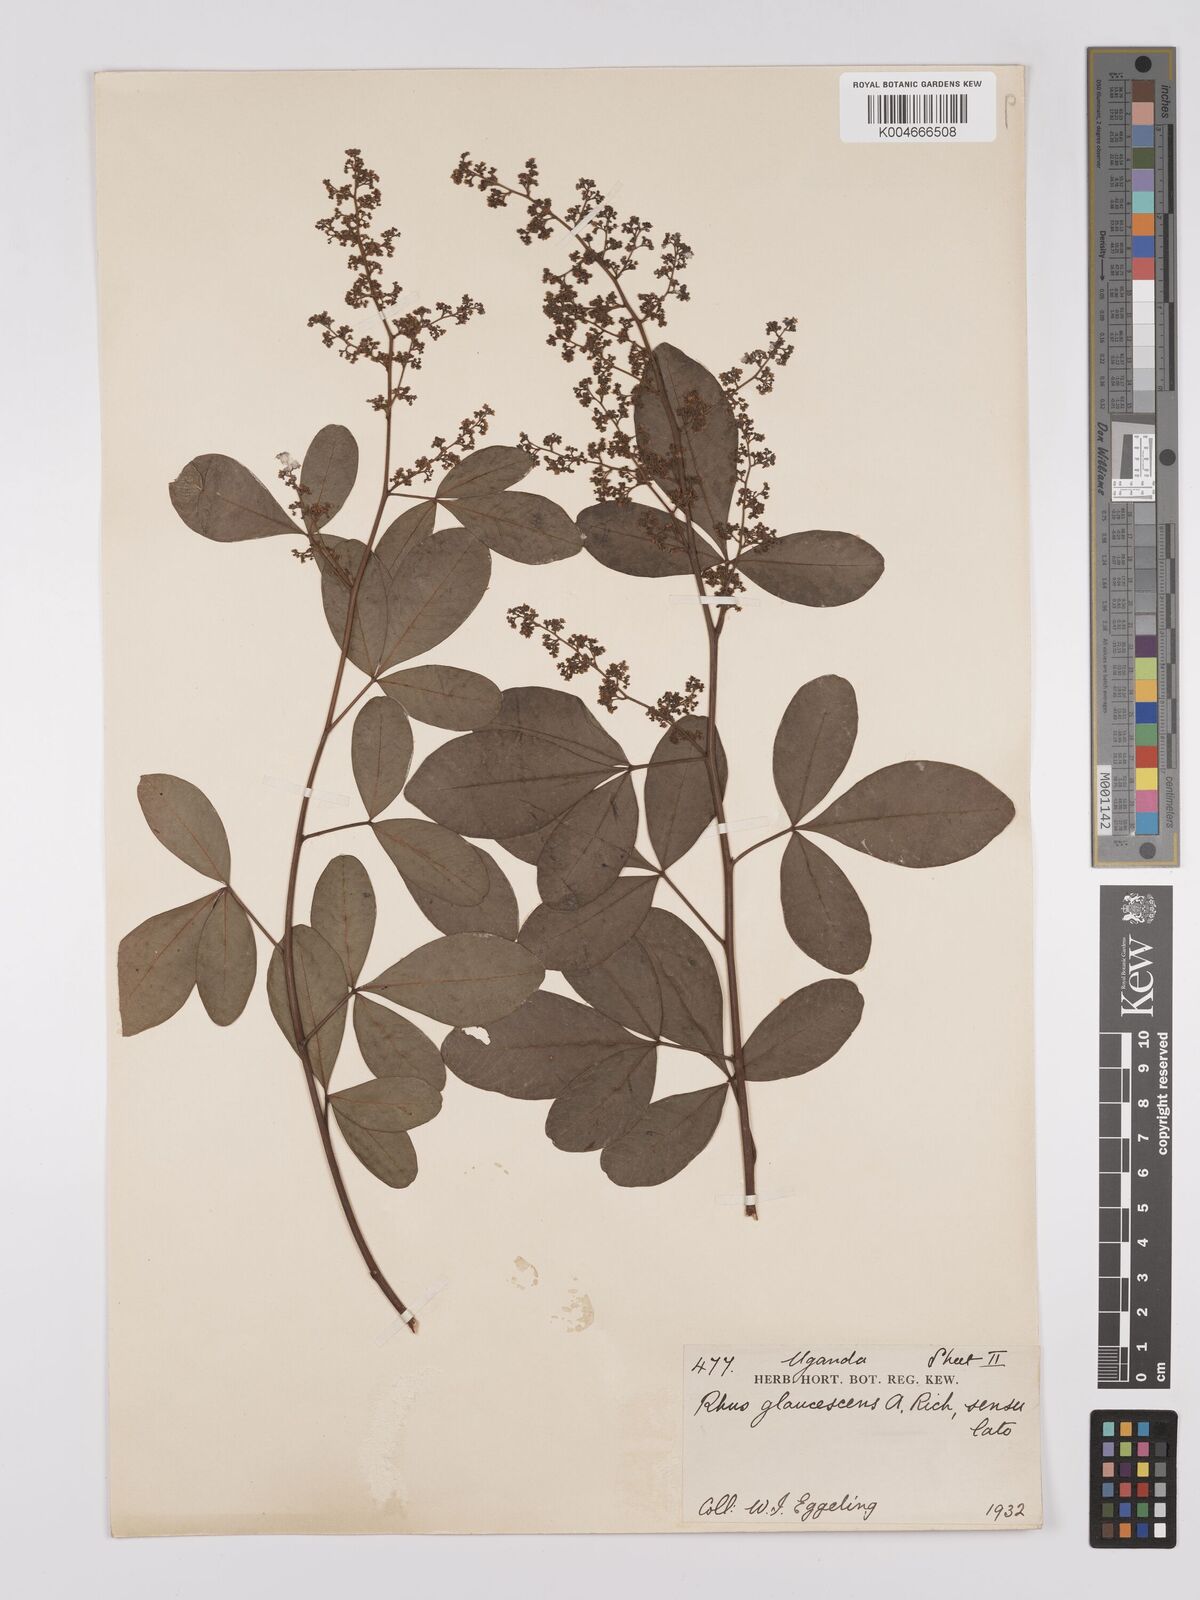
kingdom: Plantae
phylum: Tracheophyta
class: Magnoliopsida
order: Sapindales
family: Anacardiaceae
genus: Searsia
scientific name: Searsia kwangoensis
